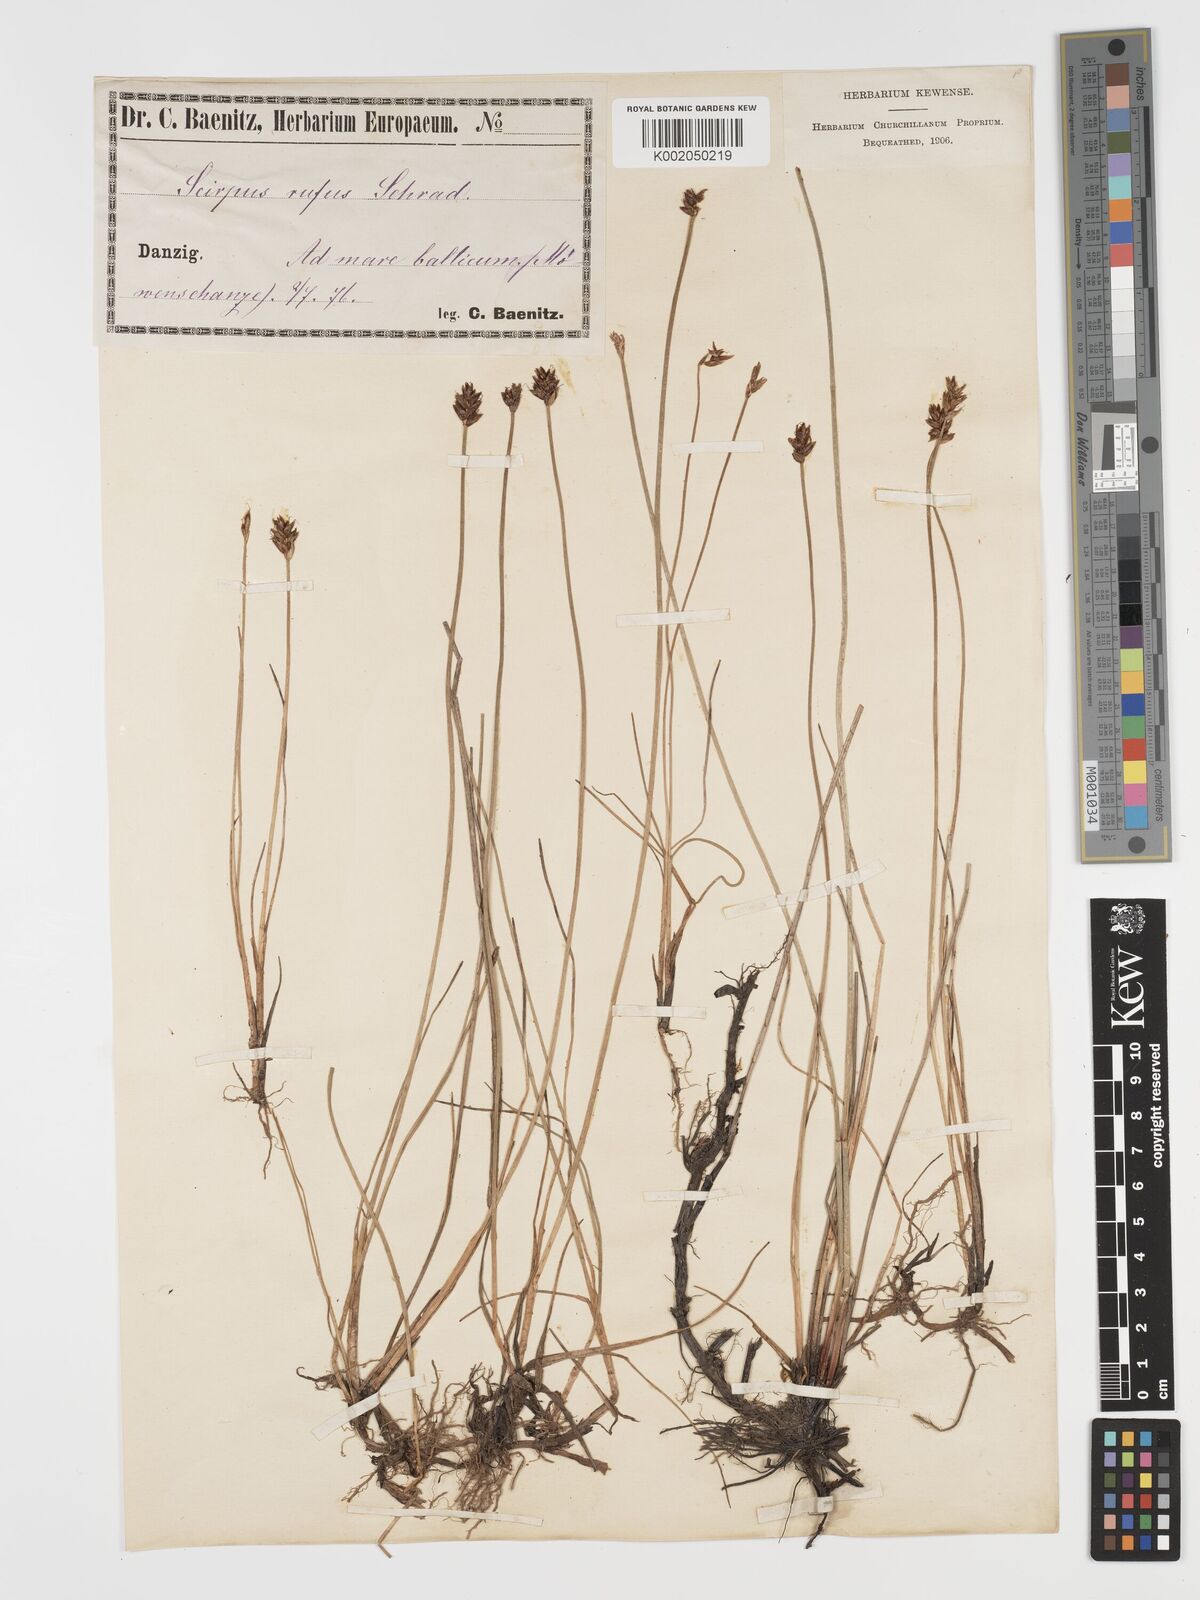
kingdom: Plantae
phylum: Tracheophyta
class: Liliopsida
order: Poales
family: Cyperaceae
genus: Blysmus
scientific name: Blysmus rufus
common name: Saltmarsh flat-sedge
